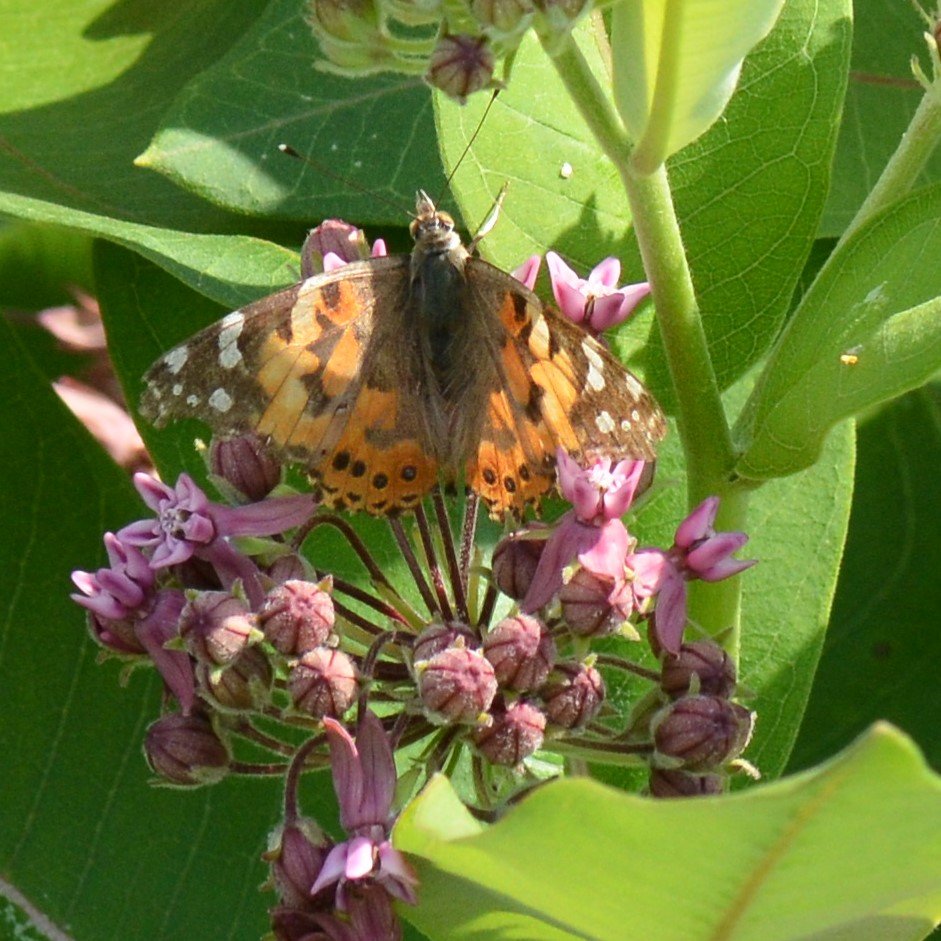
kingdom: Animalia
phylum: Arthropoda
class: Insecta
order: Lepidoptera
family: Nymphalidae
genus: Vanessa
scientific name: Vanessa cardui
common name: Painted Lady
